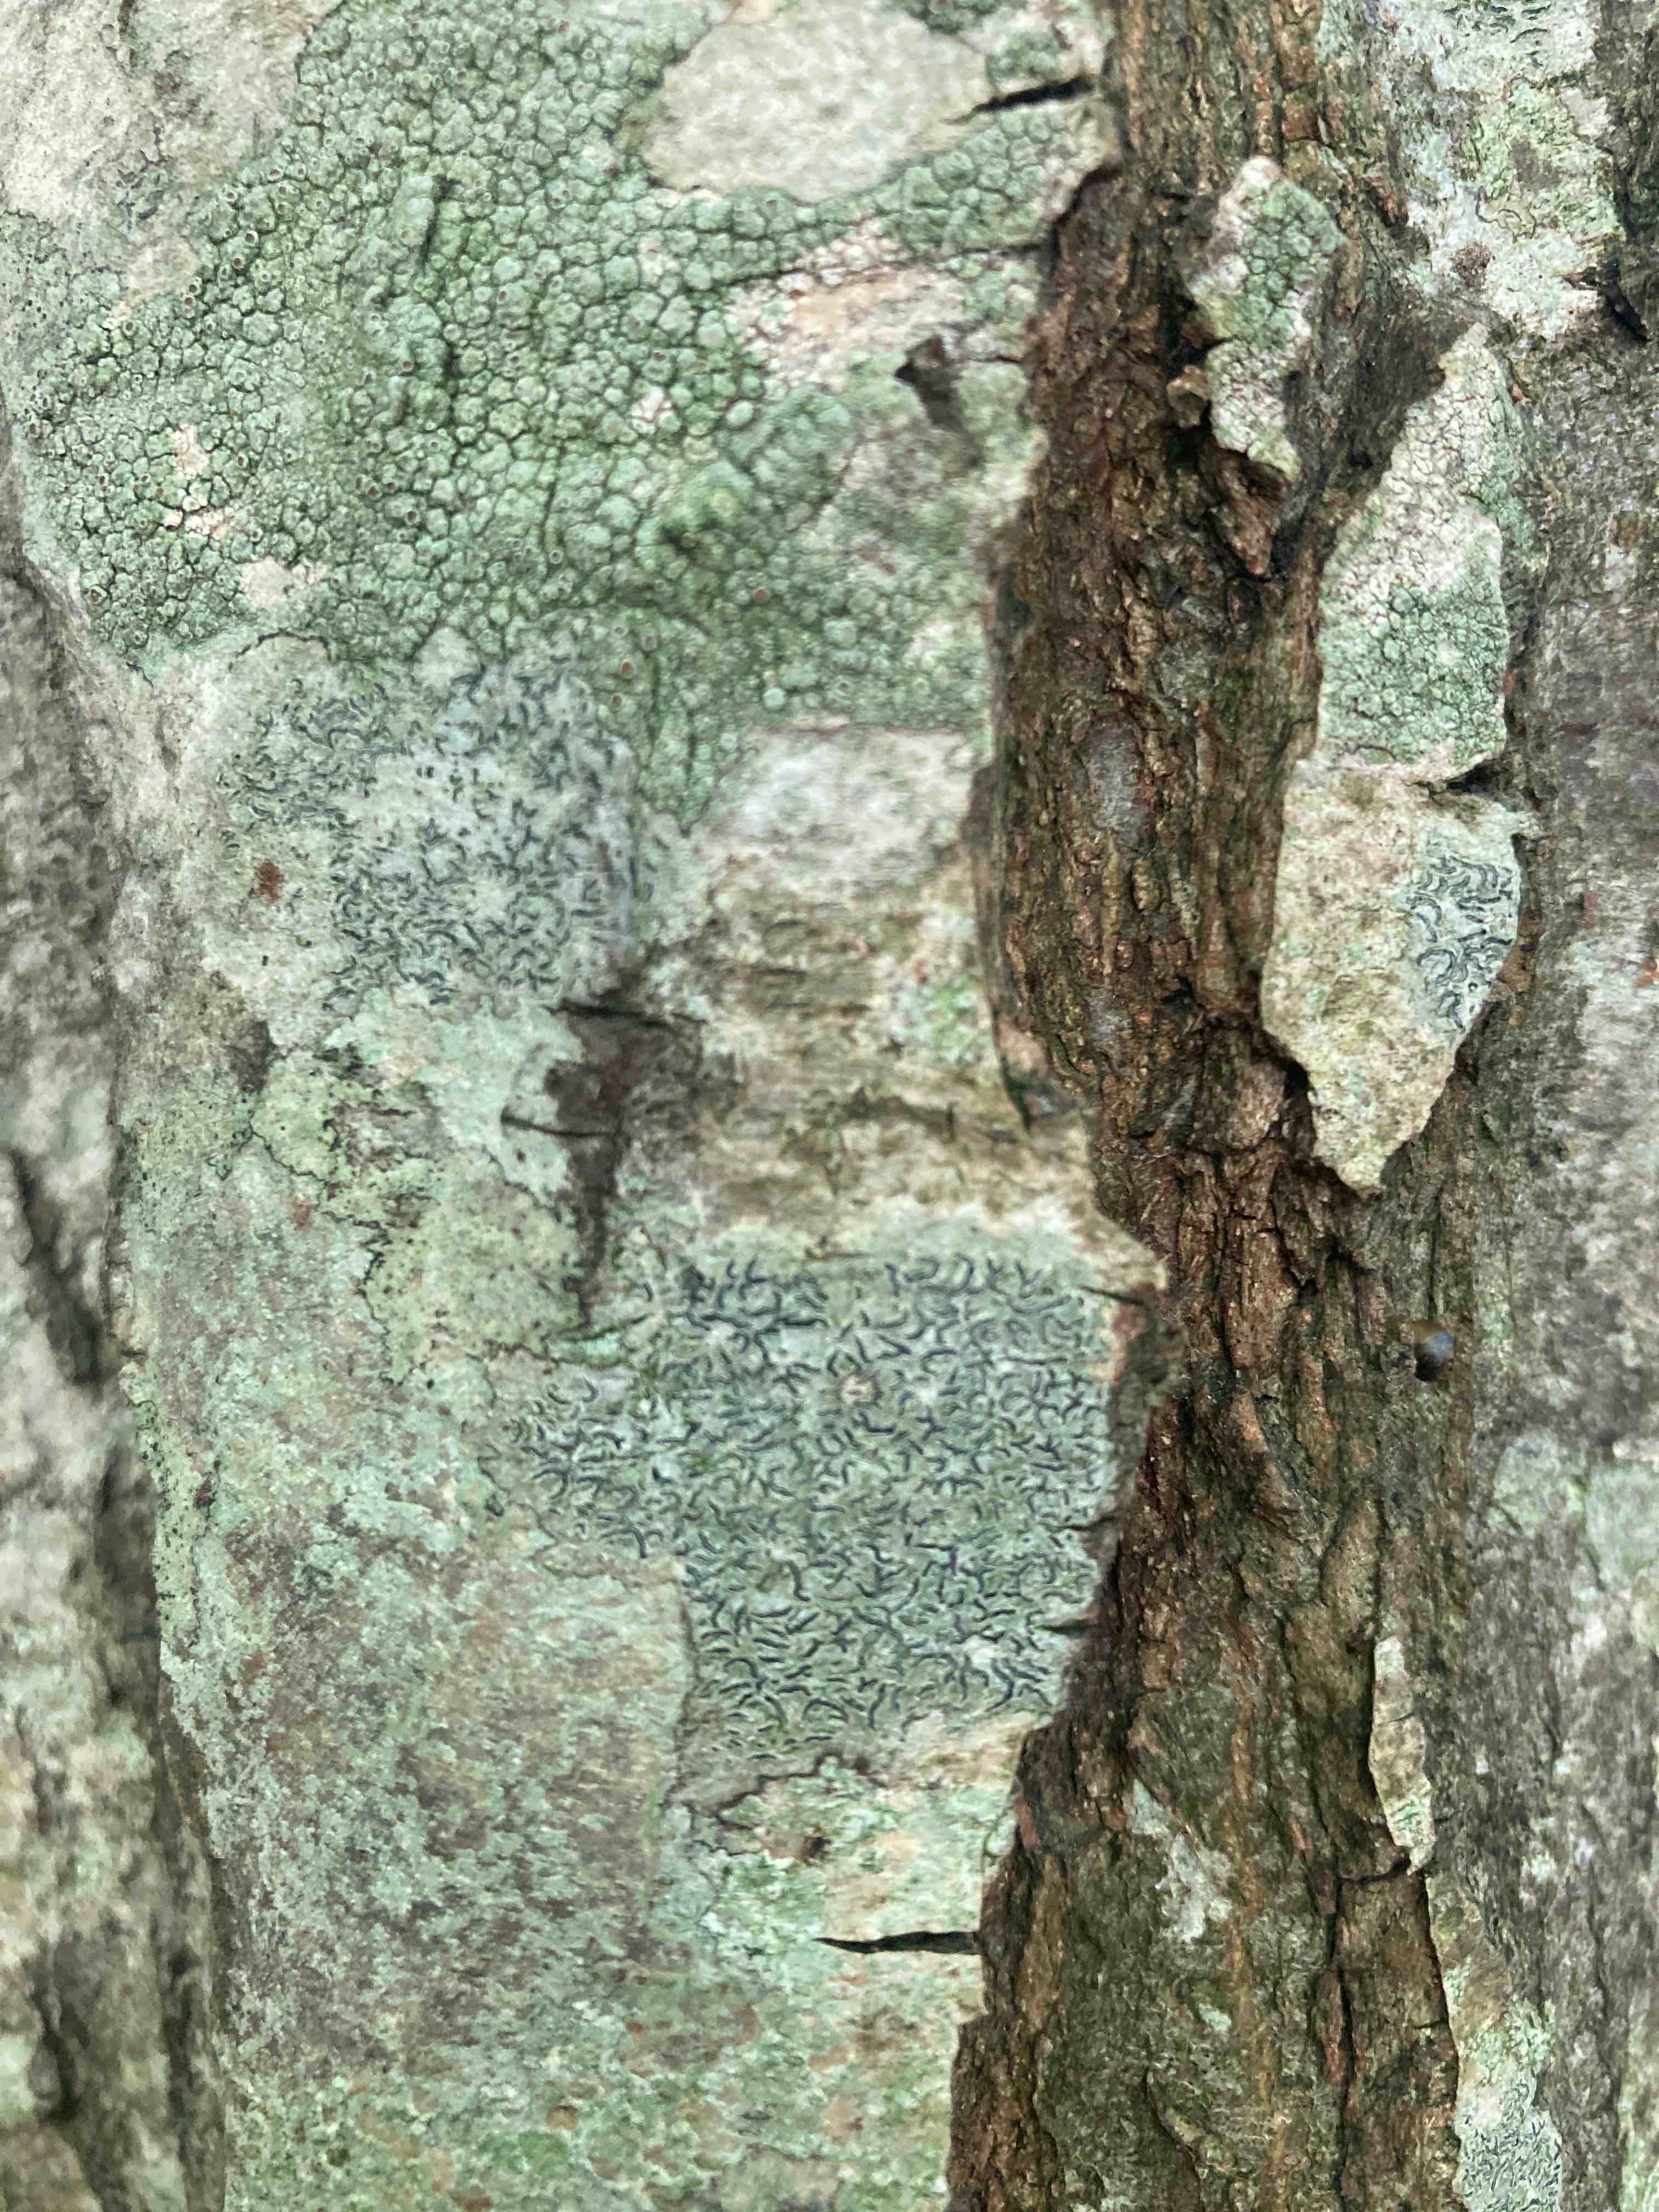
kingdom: Fungi
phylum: Ascomycota
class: Lecanoromycetes
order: Ostropales
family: Graphidaceae
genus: Graphis
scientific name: Graphis scripta
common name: almindelig skriftlav
